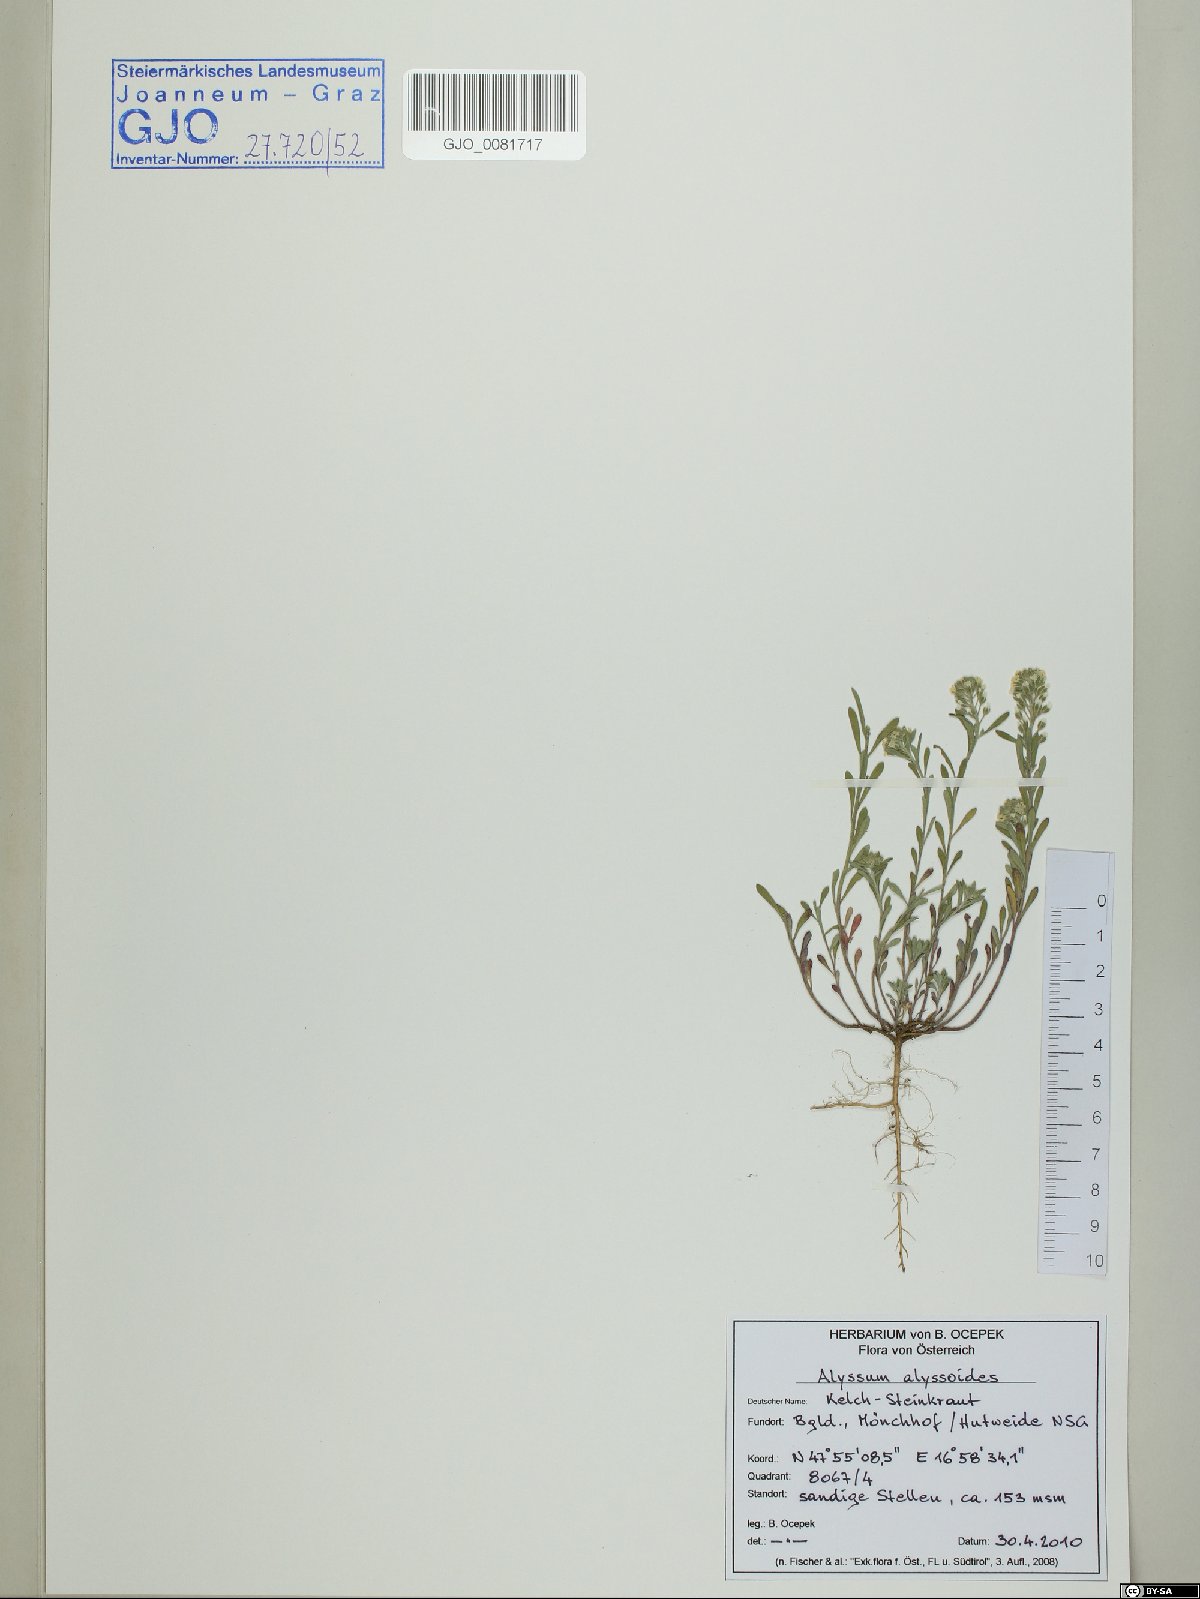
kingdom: Plantae
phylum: Tracheophyta
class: Magnoliopsida
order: Brassicales
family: Brassicaceae
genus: Alyssum
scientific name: Alyssum alyssoides
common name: Small alison
